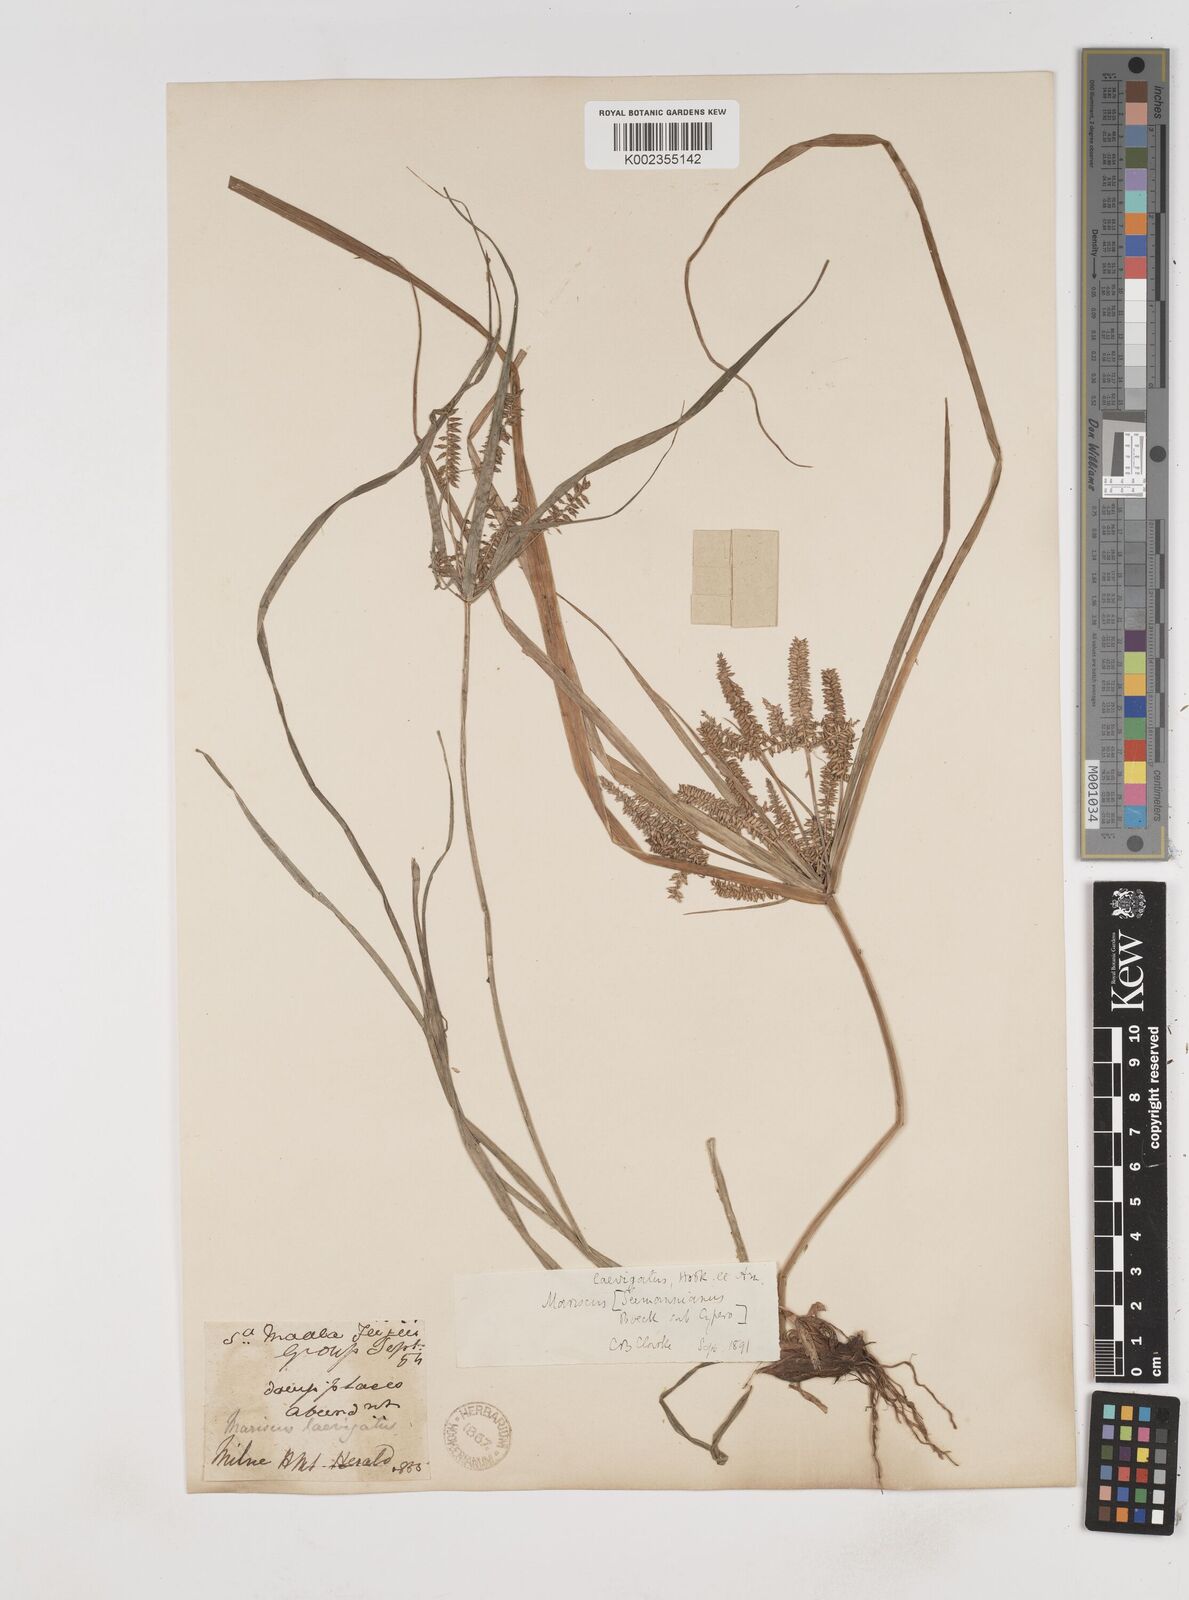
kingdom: Plantae
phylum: Tracheophyta
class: Liliopsida
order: Poales
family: Cyperaceae
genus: Cyperus
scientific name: Cyperus seemannianus
